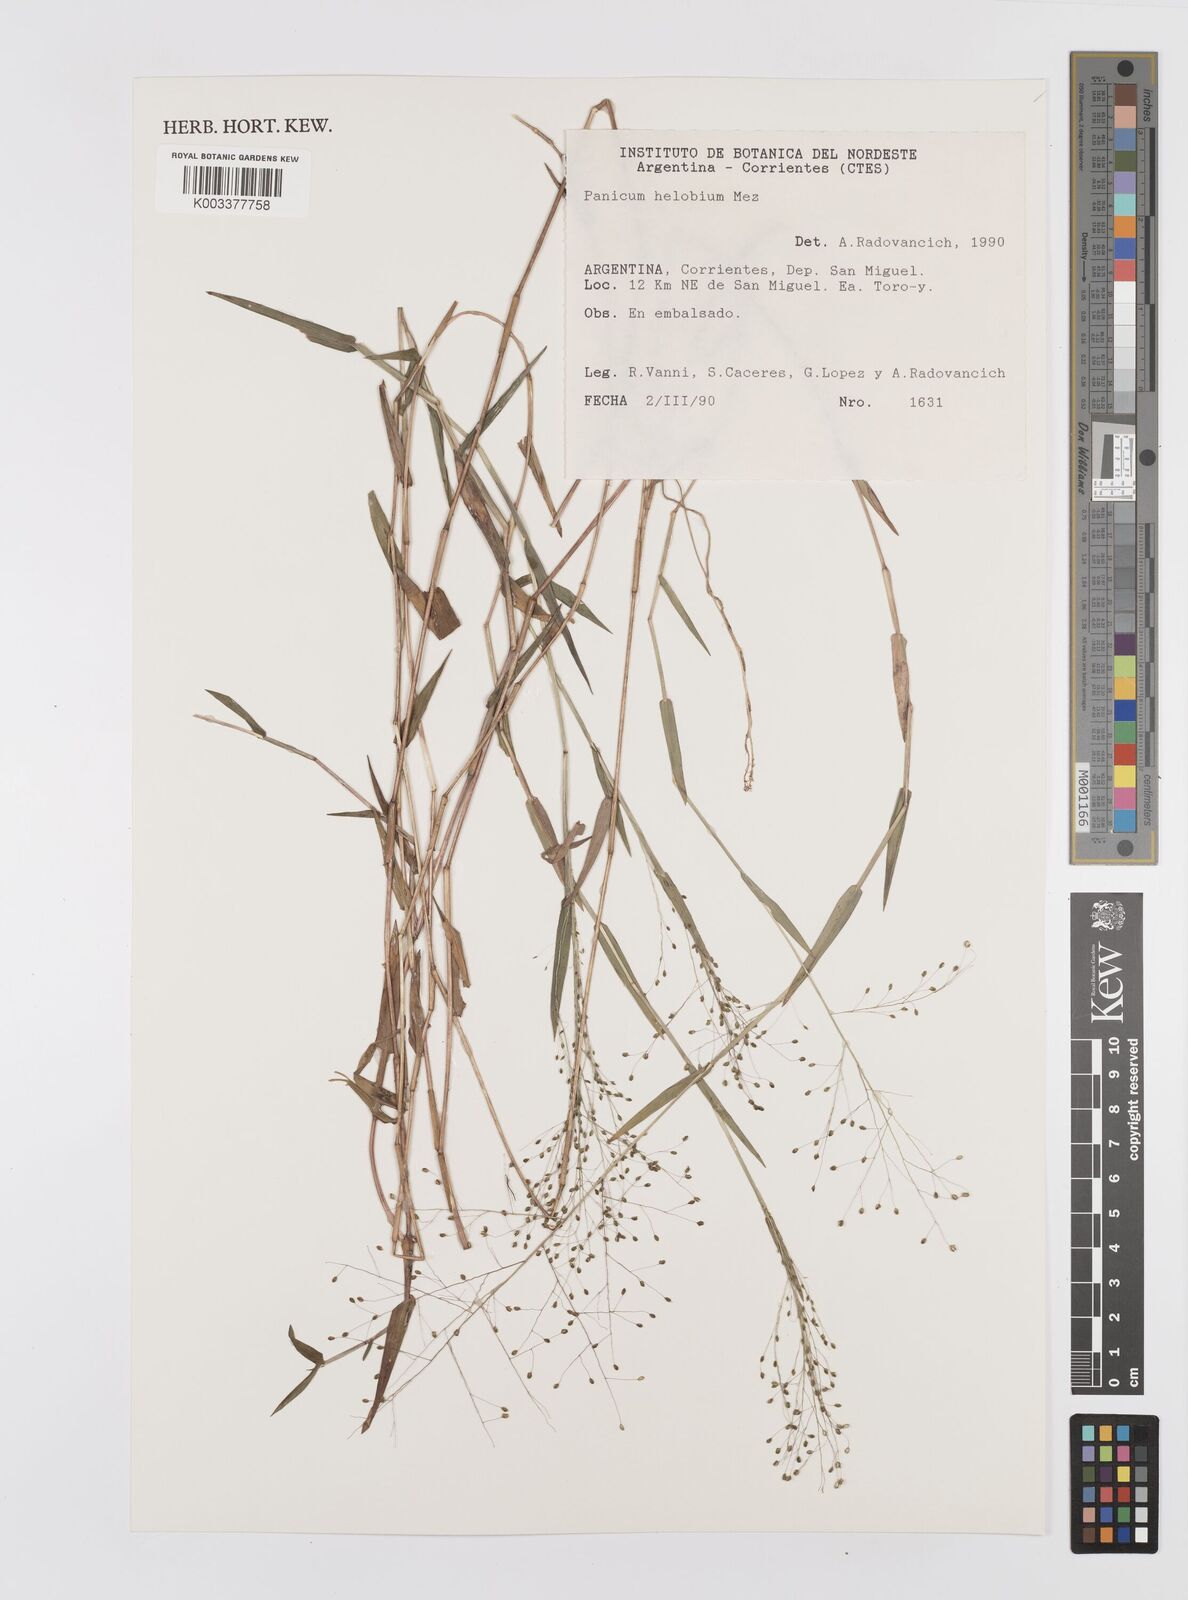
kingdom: Plantae
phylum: Tracheophyta
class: Liliopsida
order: Poales
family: Poaceae
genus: Trichanthecium
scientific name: Trichanthecium schwackeanum
